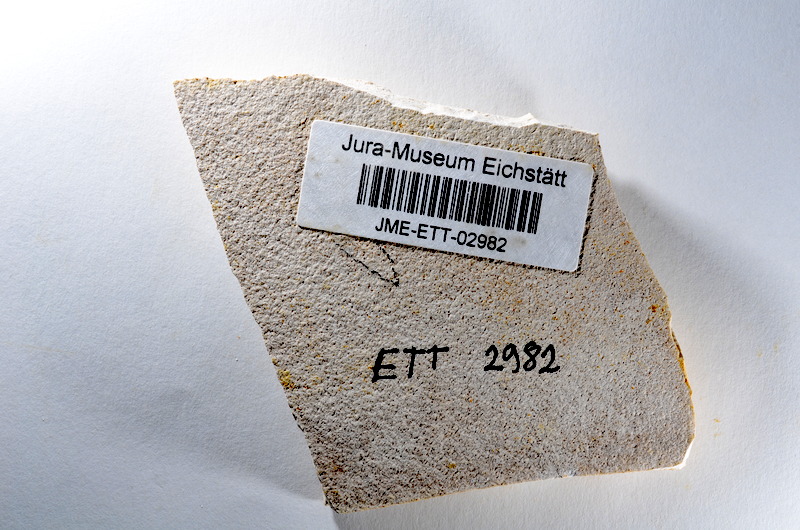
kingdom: Animalia
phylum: Chordata
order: Salmoniformes
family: Orthogonikleithridae
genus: Orthogonikleithrus
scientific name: Orthogonikleithrus hoelli
